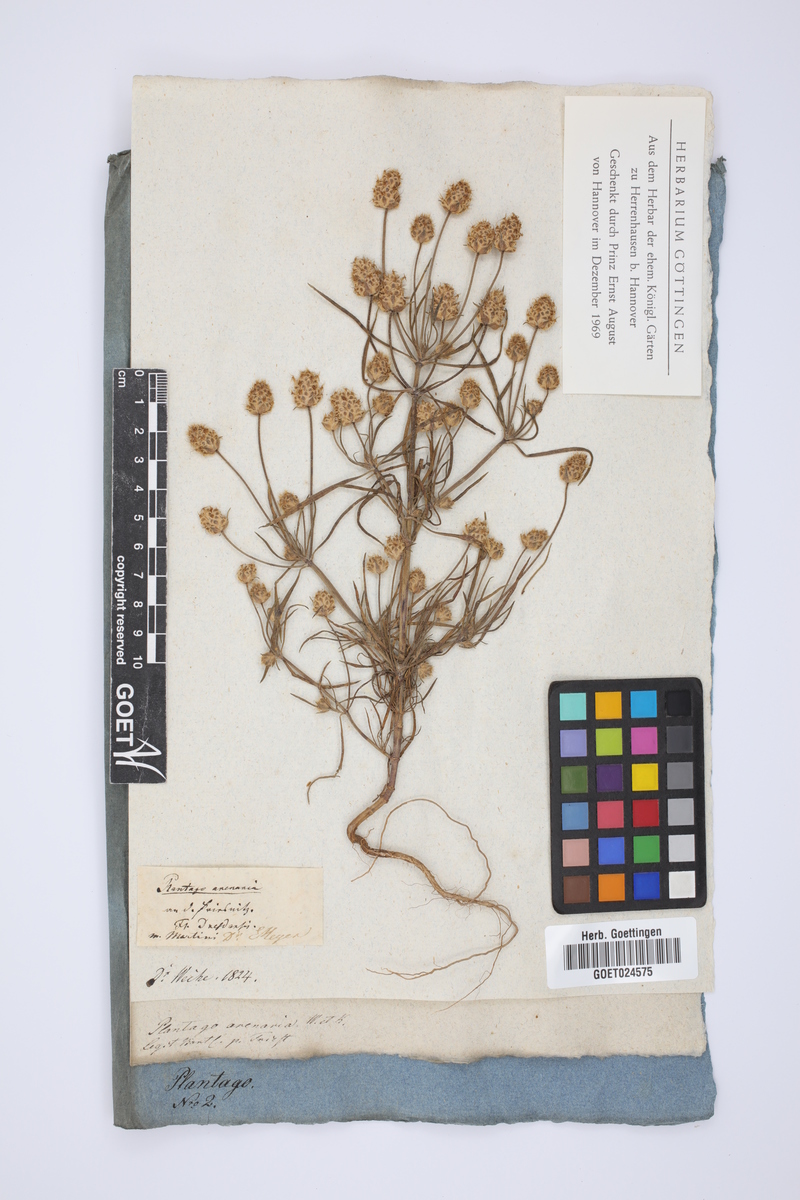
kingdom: Plantae
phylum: Tracheophyta
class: Magnoliopsida
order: Lamiales
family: Plantaginaceae
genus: Plantago
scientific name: Plantago arenaria
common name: Branched plantain
